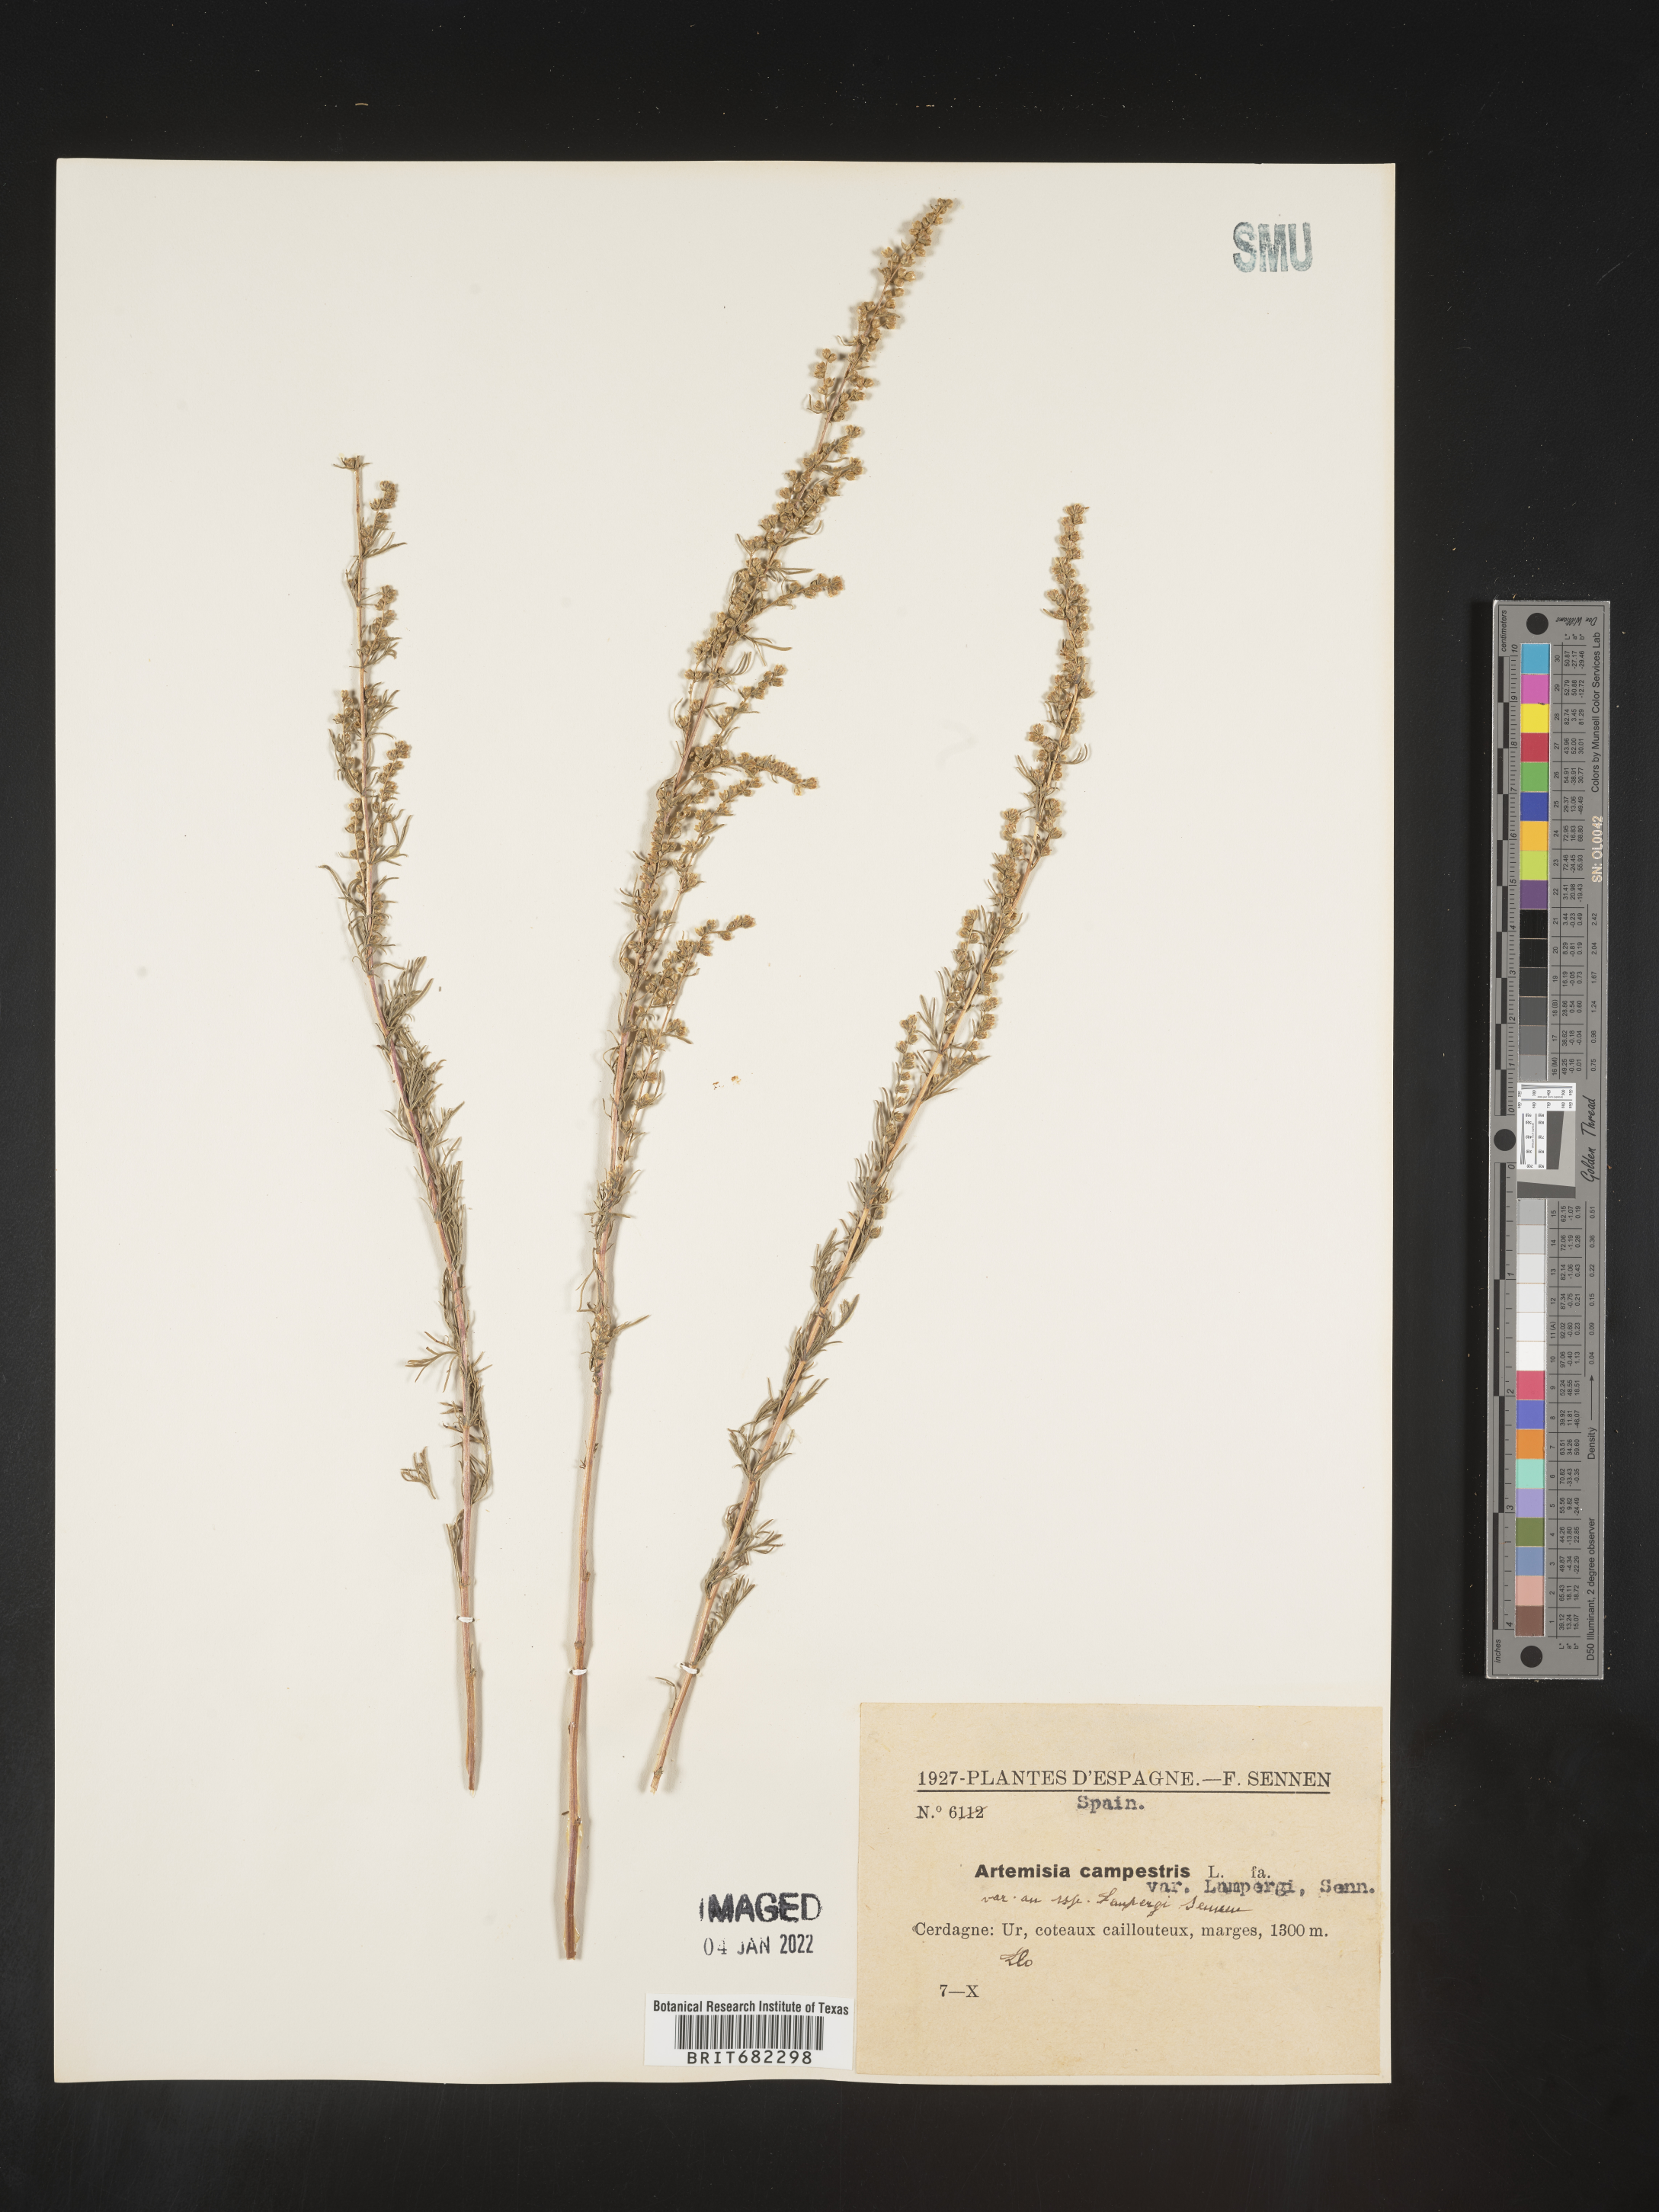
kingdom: Plantae
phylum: Tracheophyta
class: Magnoliopsida
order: Asterales
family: Asteraceae
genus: Artemisia
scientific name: Artemisia campestris
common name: Field wormwood
